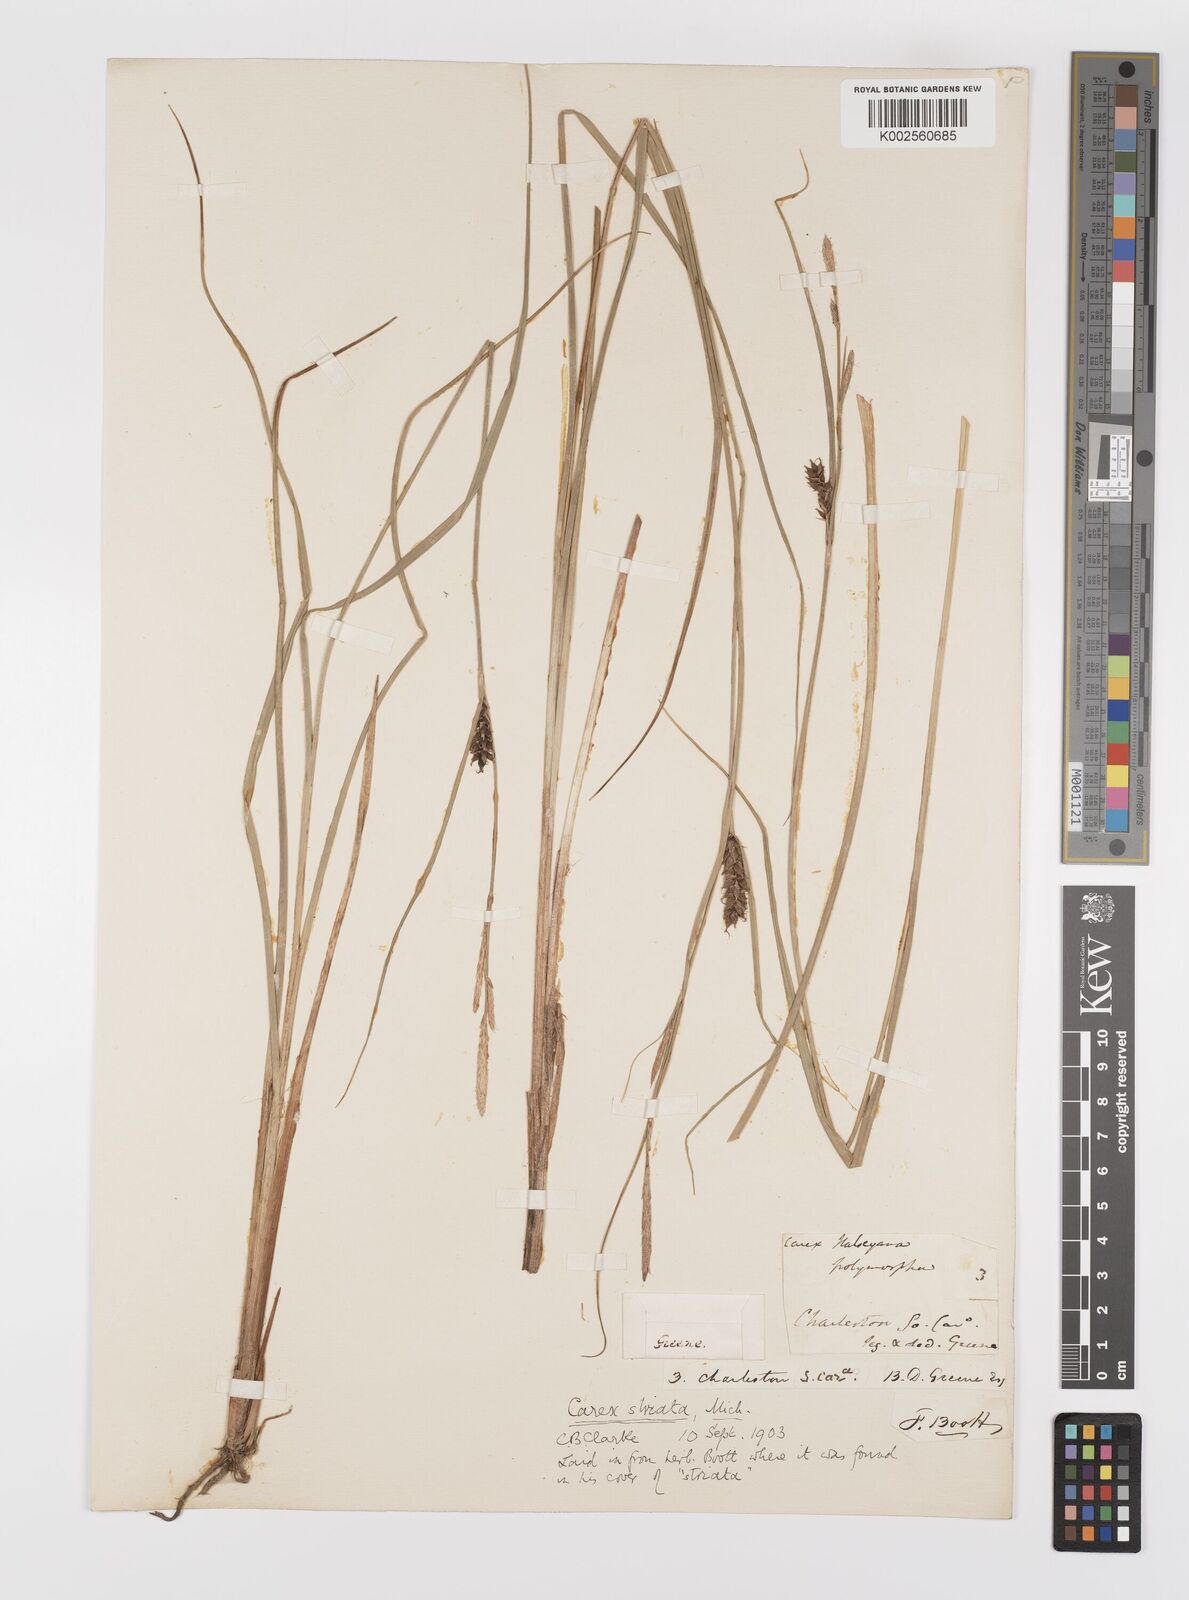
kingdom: Plantae
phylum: Tracheophyta
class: Liliopsida
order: Poales
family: Cyperaceae
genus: Carex
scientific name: Carex striata
